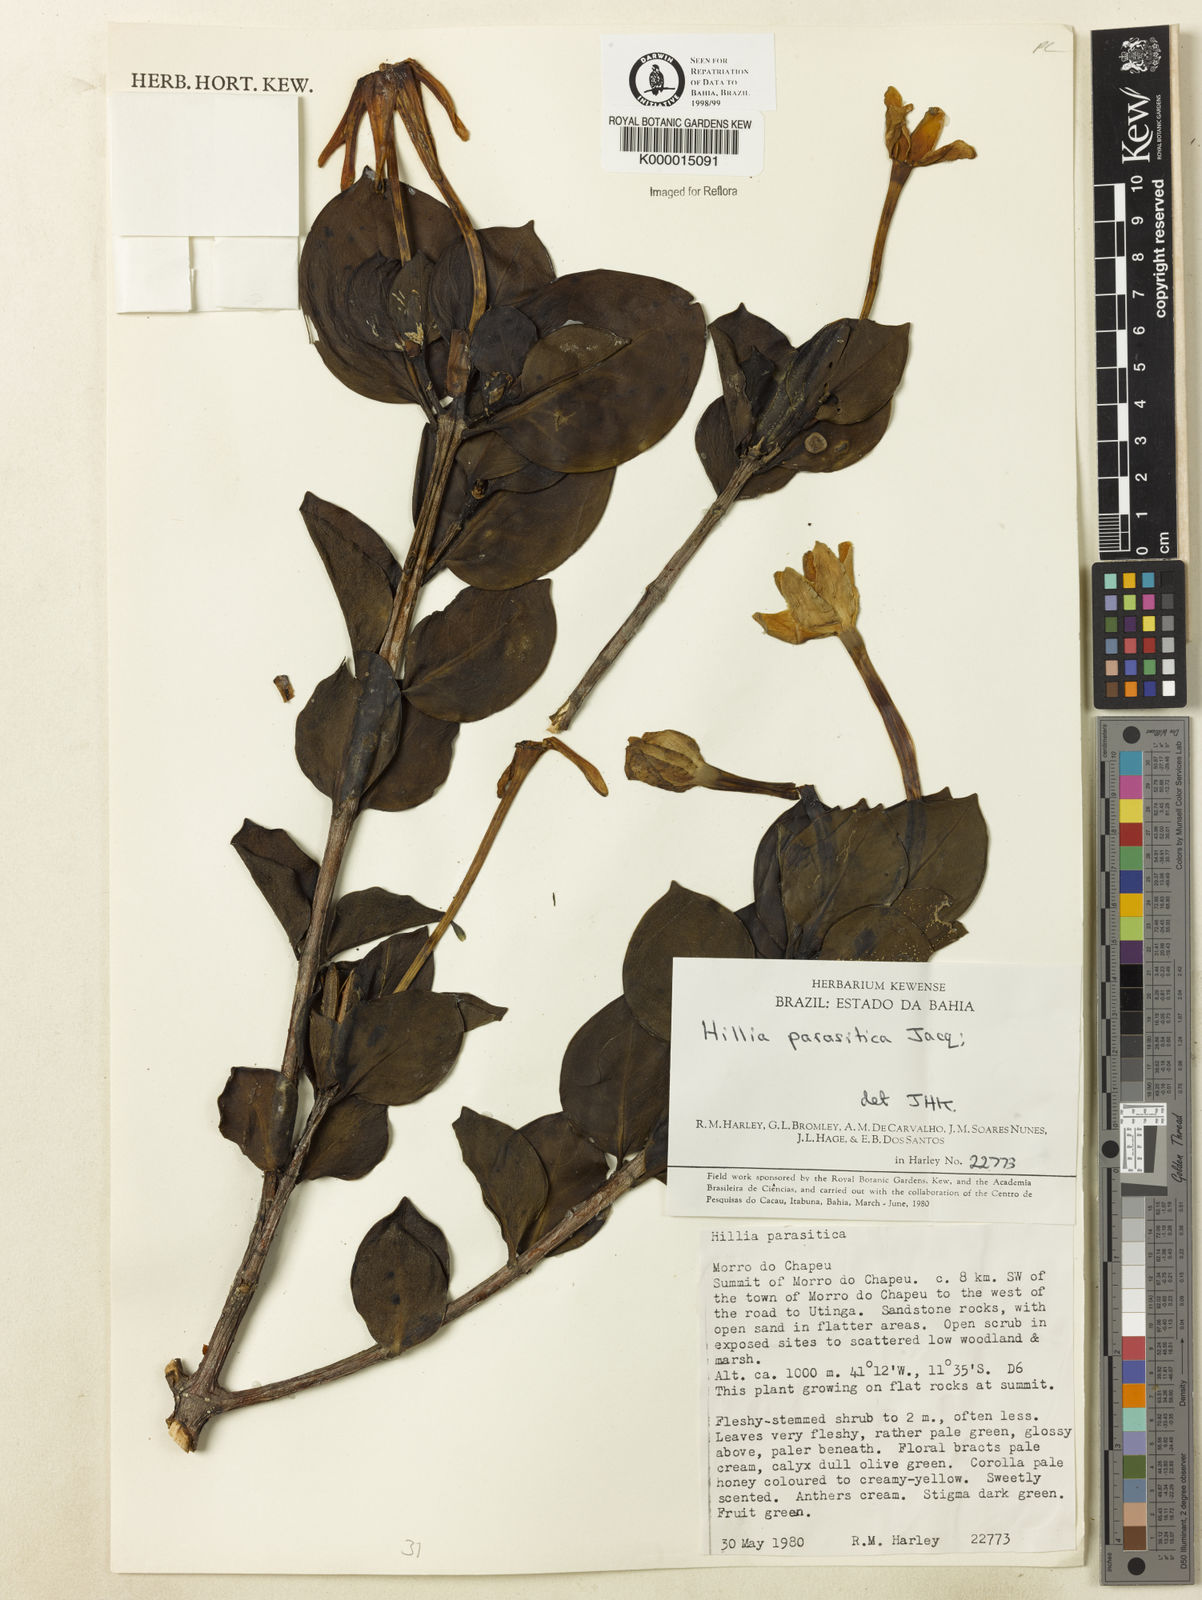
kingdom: Plantae
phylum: Tracheophyta
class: Magnoliopsida
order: Gentianales
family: Rubiaceae
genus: Hillia
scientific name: Hillia parasitica
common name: Morning star
